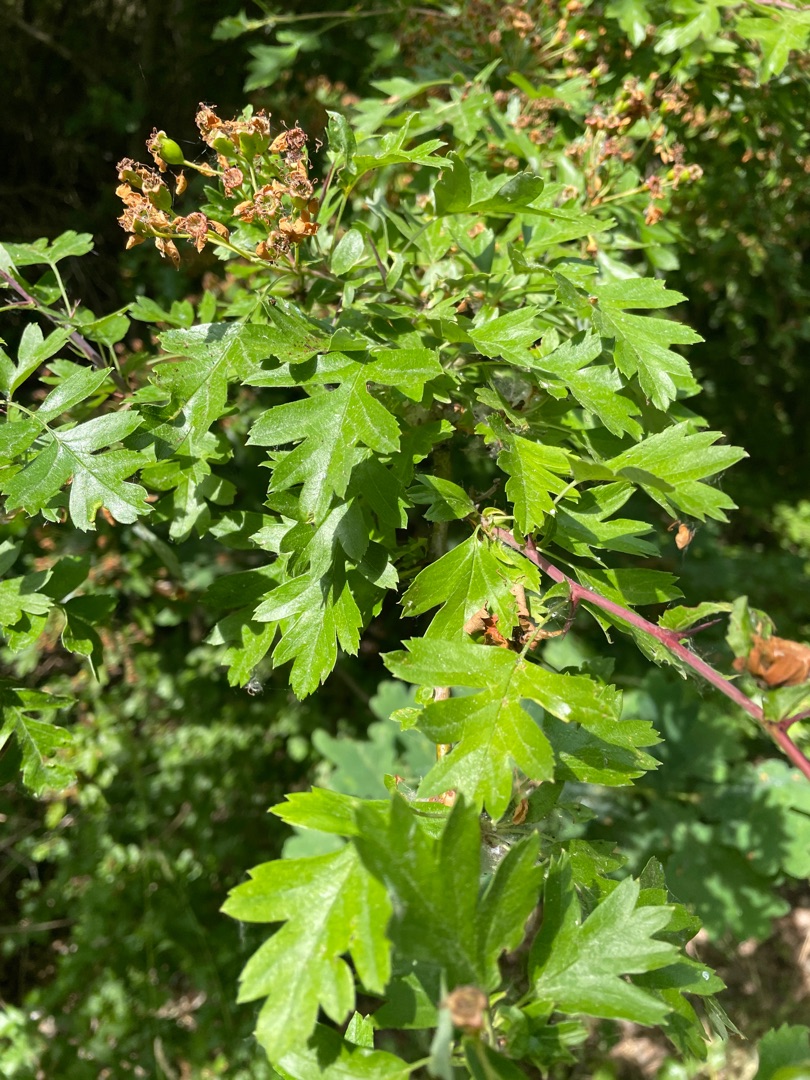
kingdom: Plantae
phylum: Tracheophyta
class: Magnoliopsida
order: Rosales
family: Rosaceae
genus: Crataegus
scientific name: Crataegus monogyna
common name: Engriflet hvidtjørn
